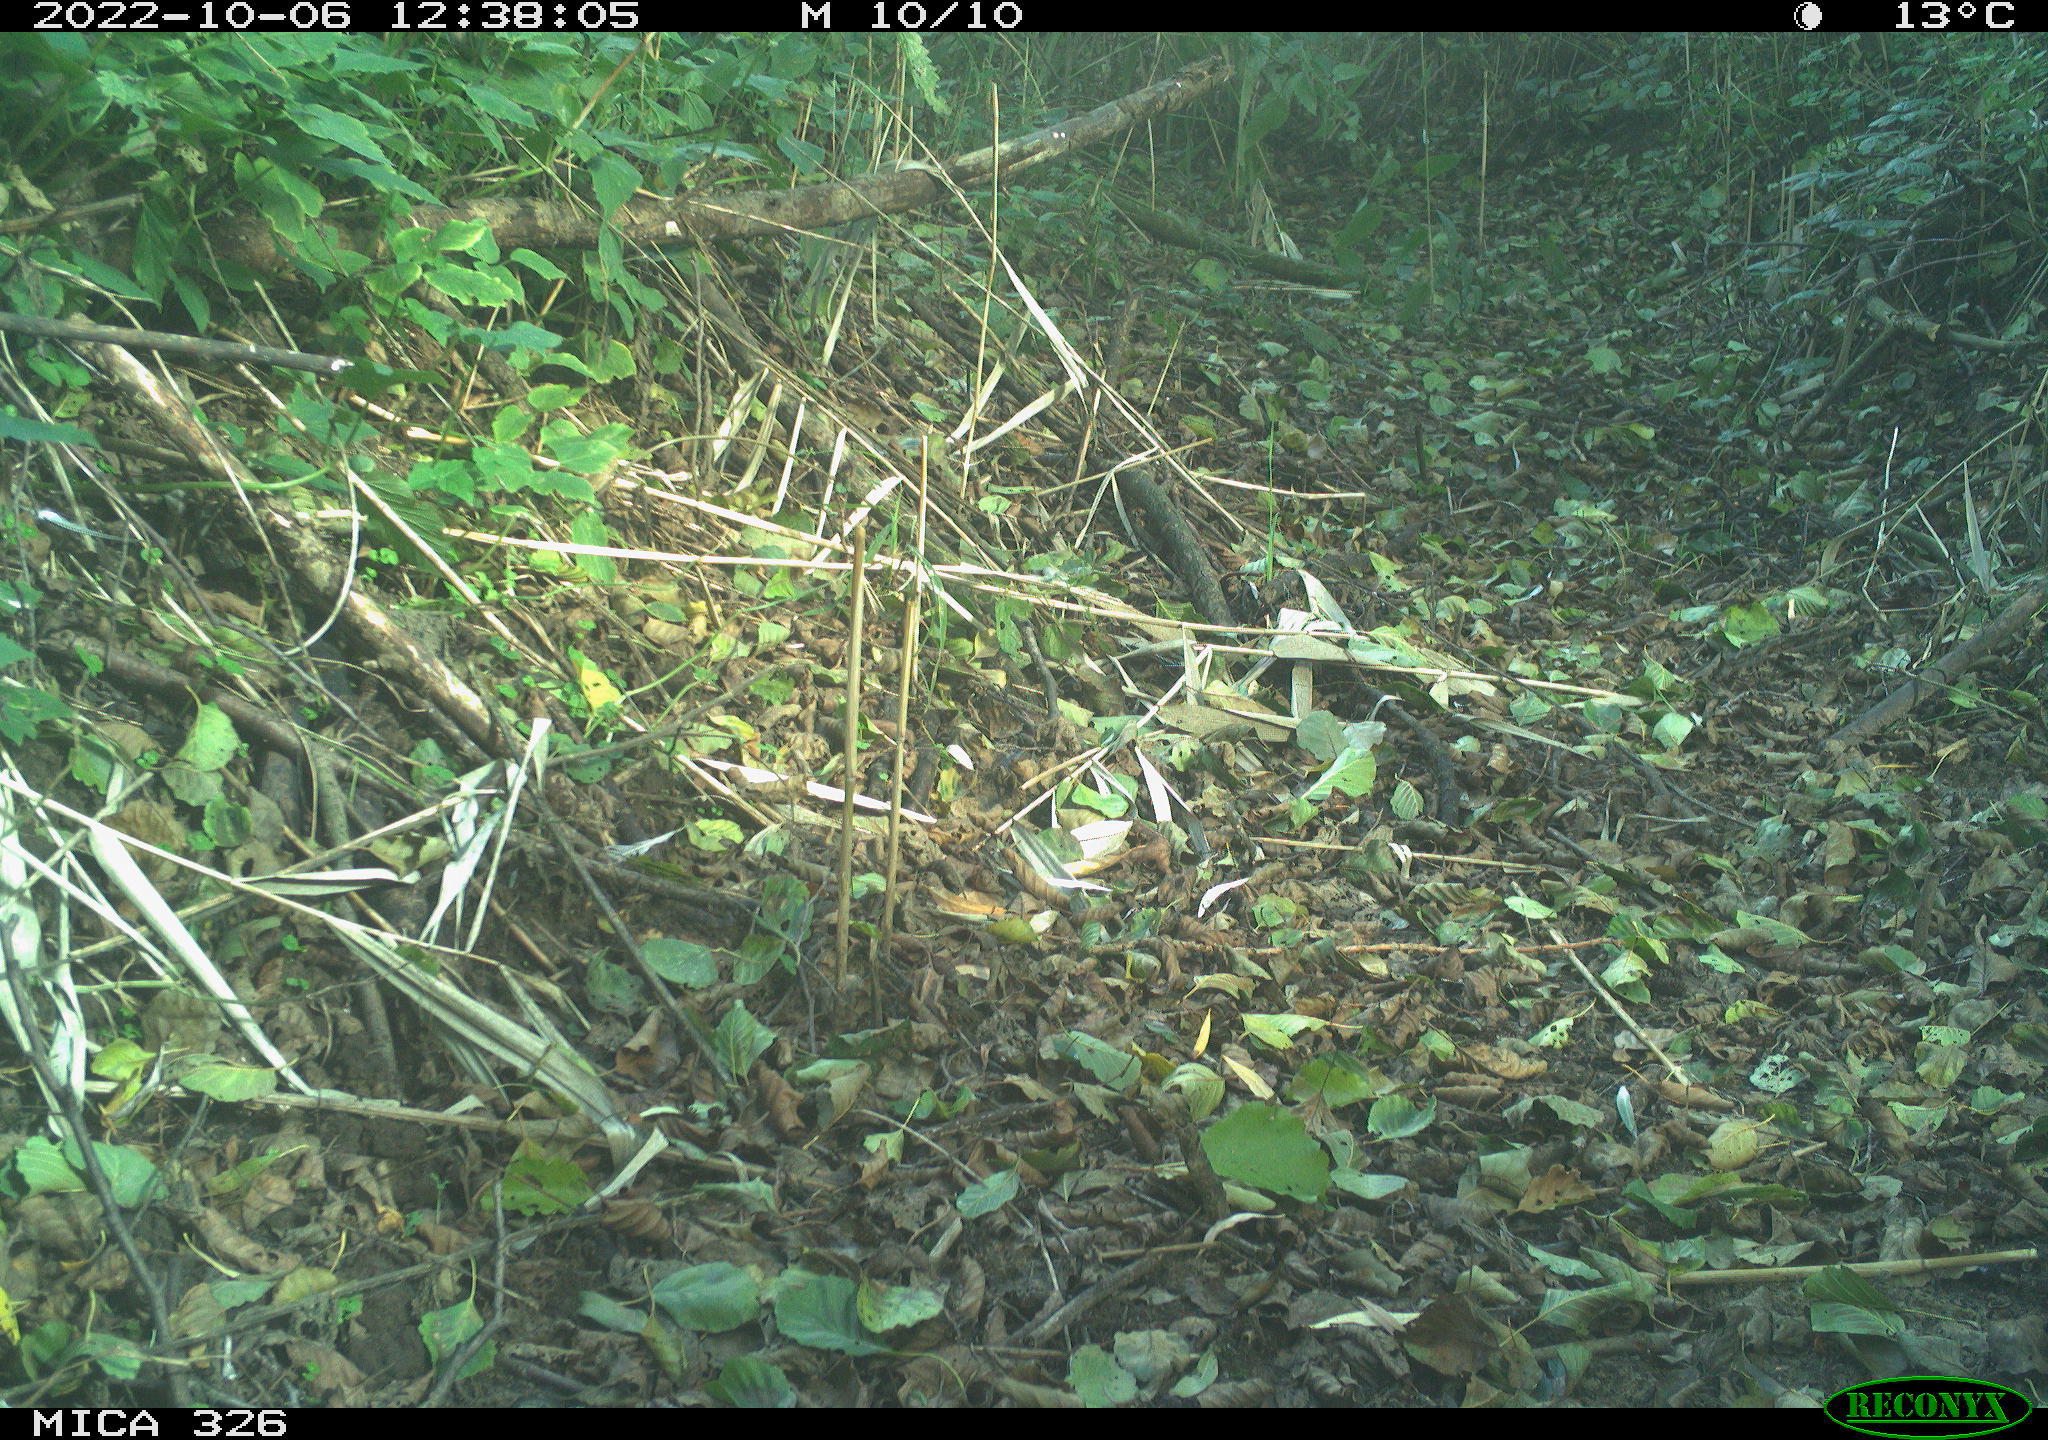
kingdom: Animalia
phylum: Chordata
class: Aves
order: Galliformes
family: Phasianidae
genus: Phasianus
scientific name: Phasianus colchicus
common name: Common pheasant
